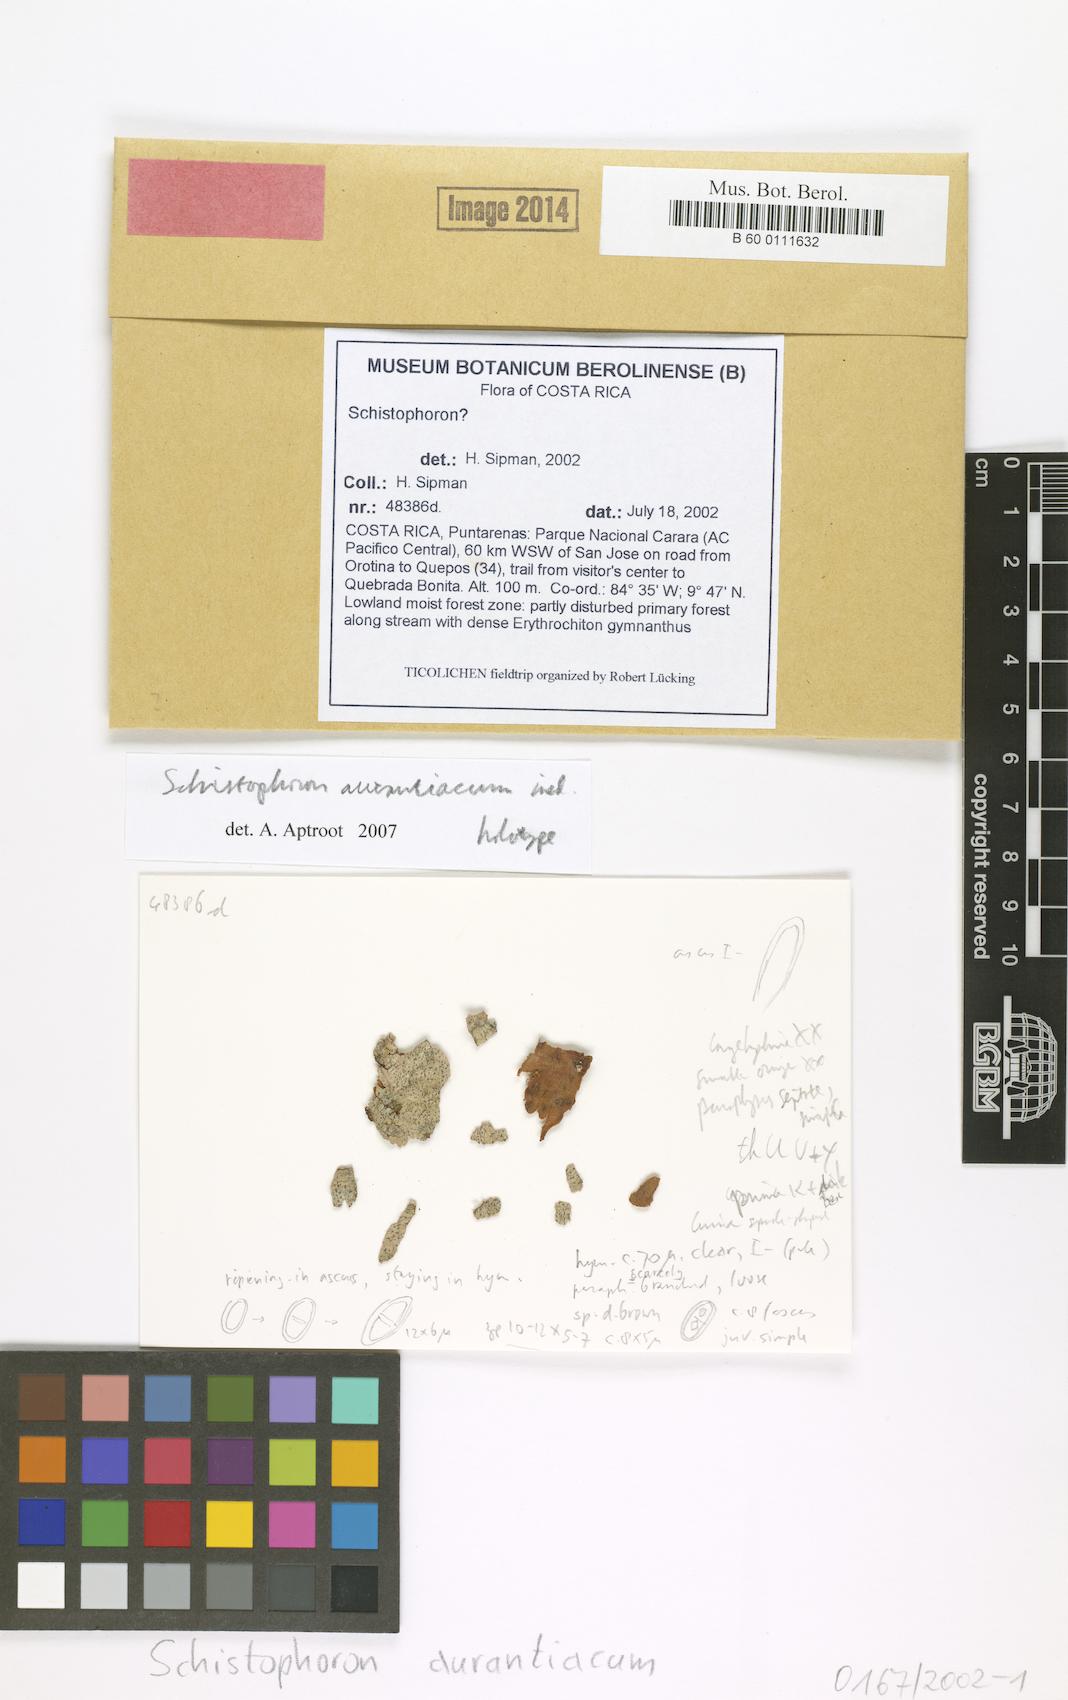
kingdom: Fungi
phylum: Ascomycota
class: Lecanoromycetes
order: Ostropales
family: Graphidaceae
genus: Schistophoron
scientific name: Schistophoron aurantiacum
